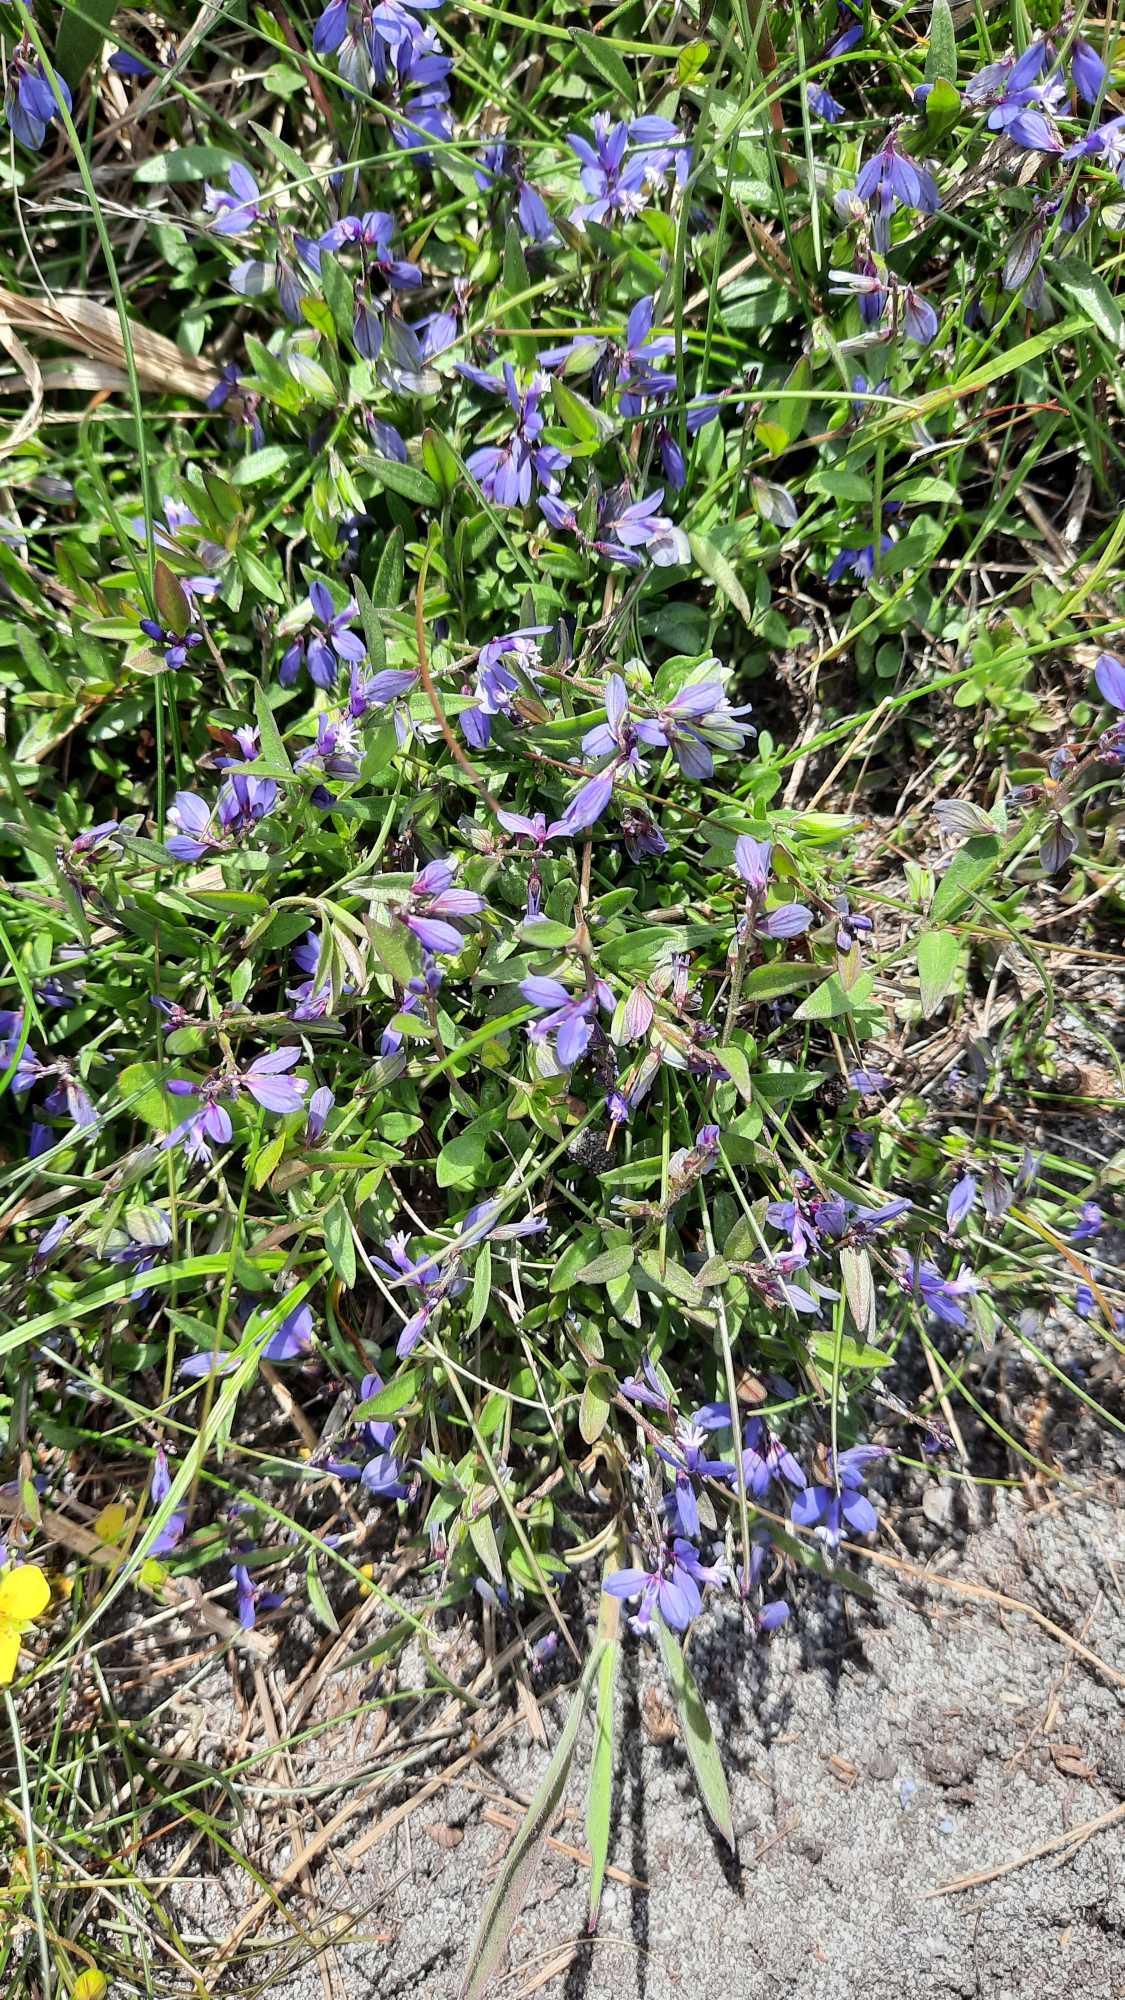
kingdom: Plantae
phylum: Tracheophyta
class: Magnoliopsida
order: Fabales
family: Polygalaceae
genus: Polygala
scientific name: Polygala serpyllifolia
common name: Spæd mælkeurt
